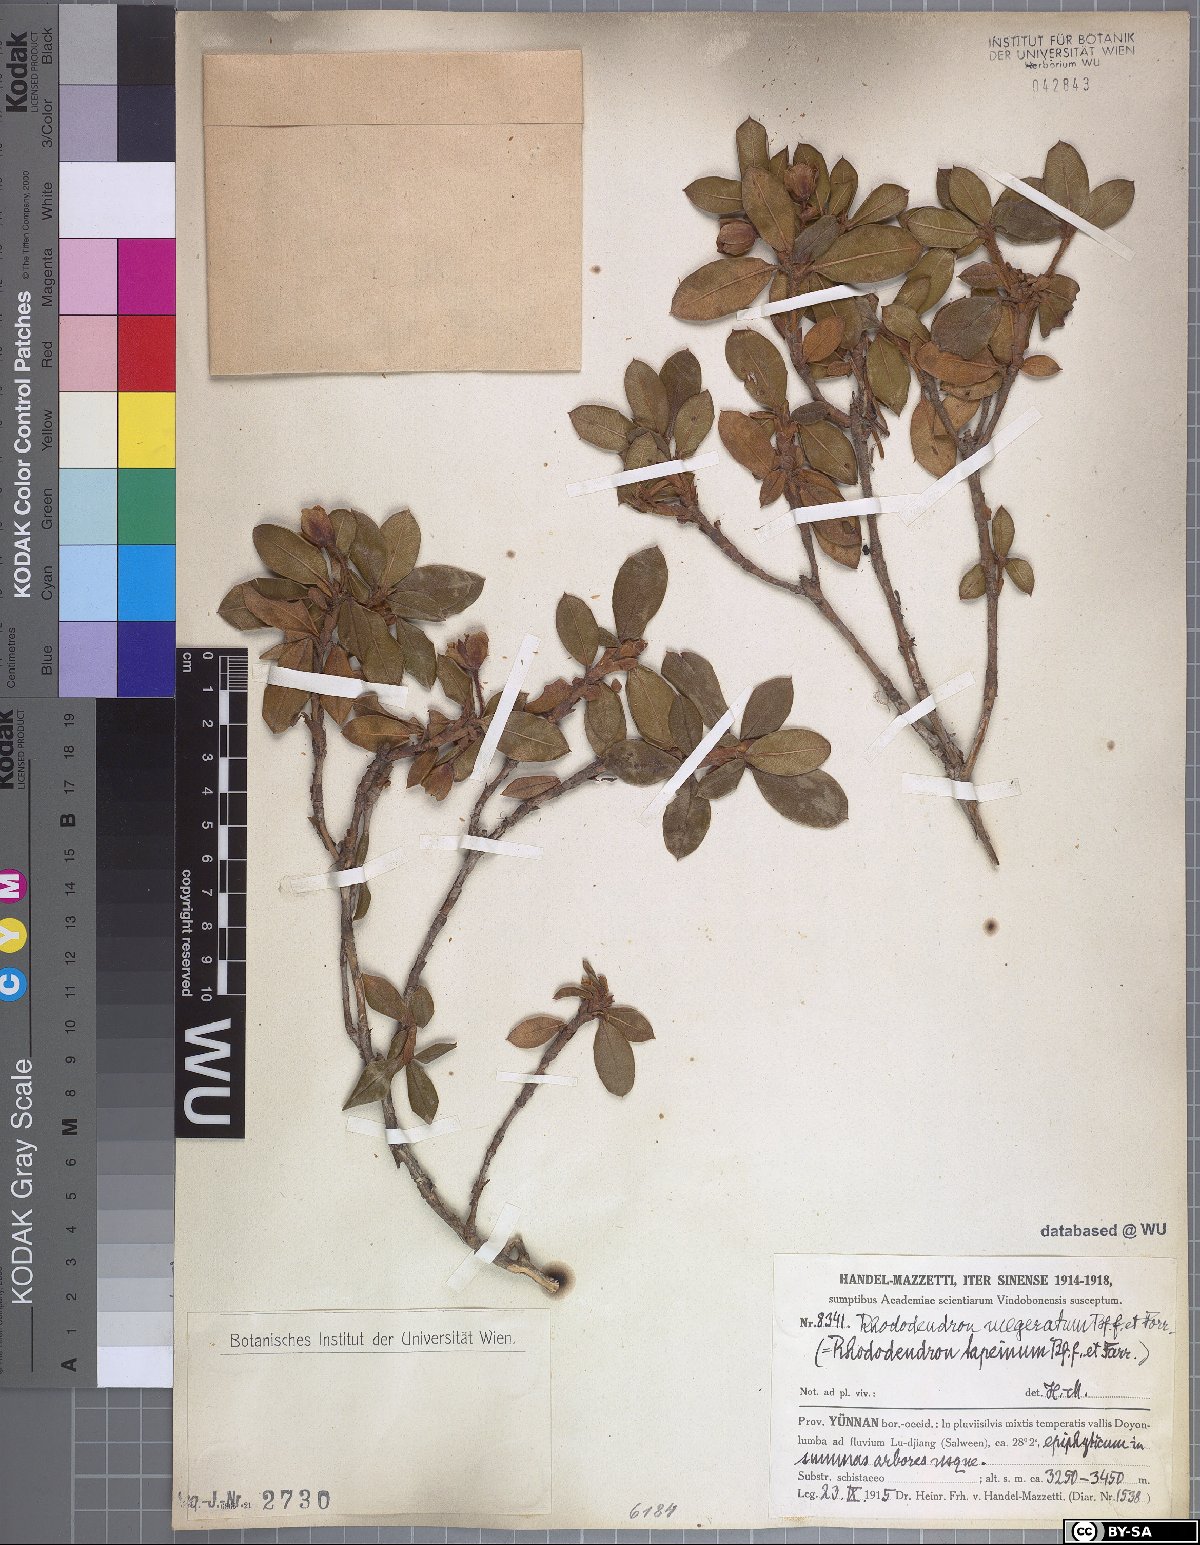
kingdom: Plantae
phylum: Tracheophyta
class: Magnoliopsida
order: Ericales
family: Ericaceae
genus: Rhododendron
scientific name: Rhododendron megeratum
